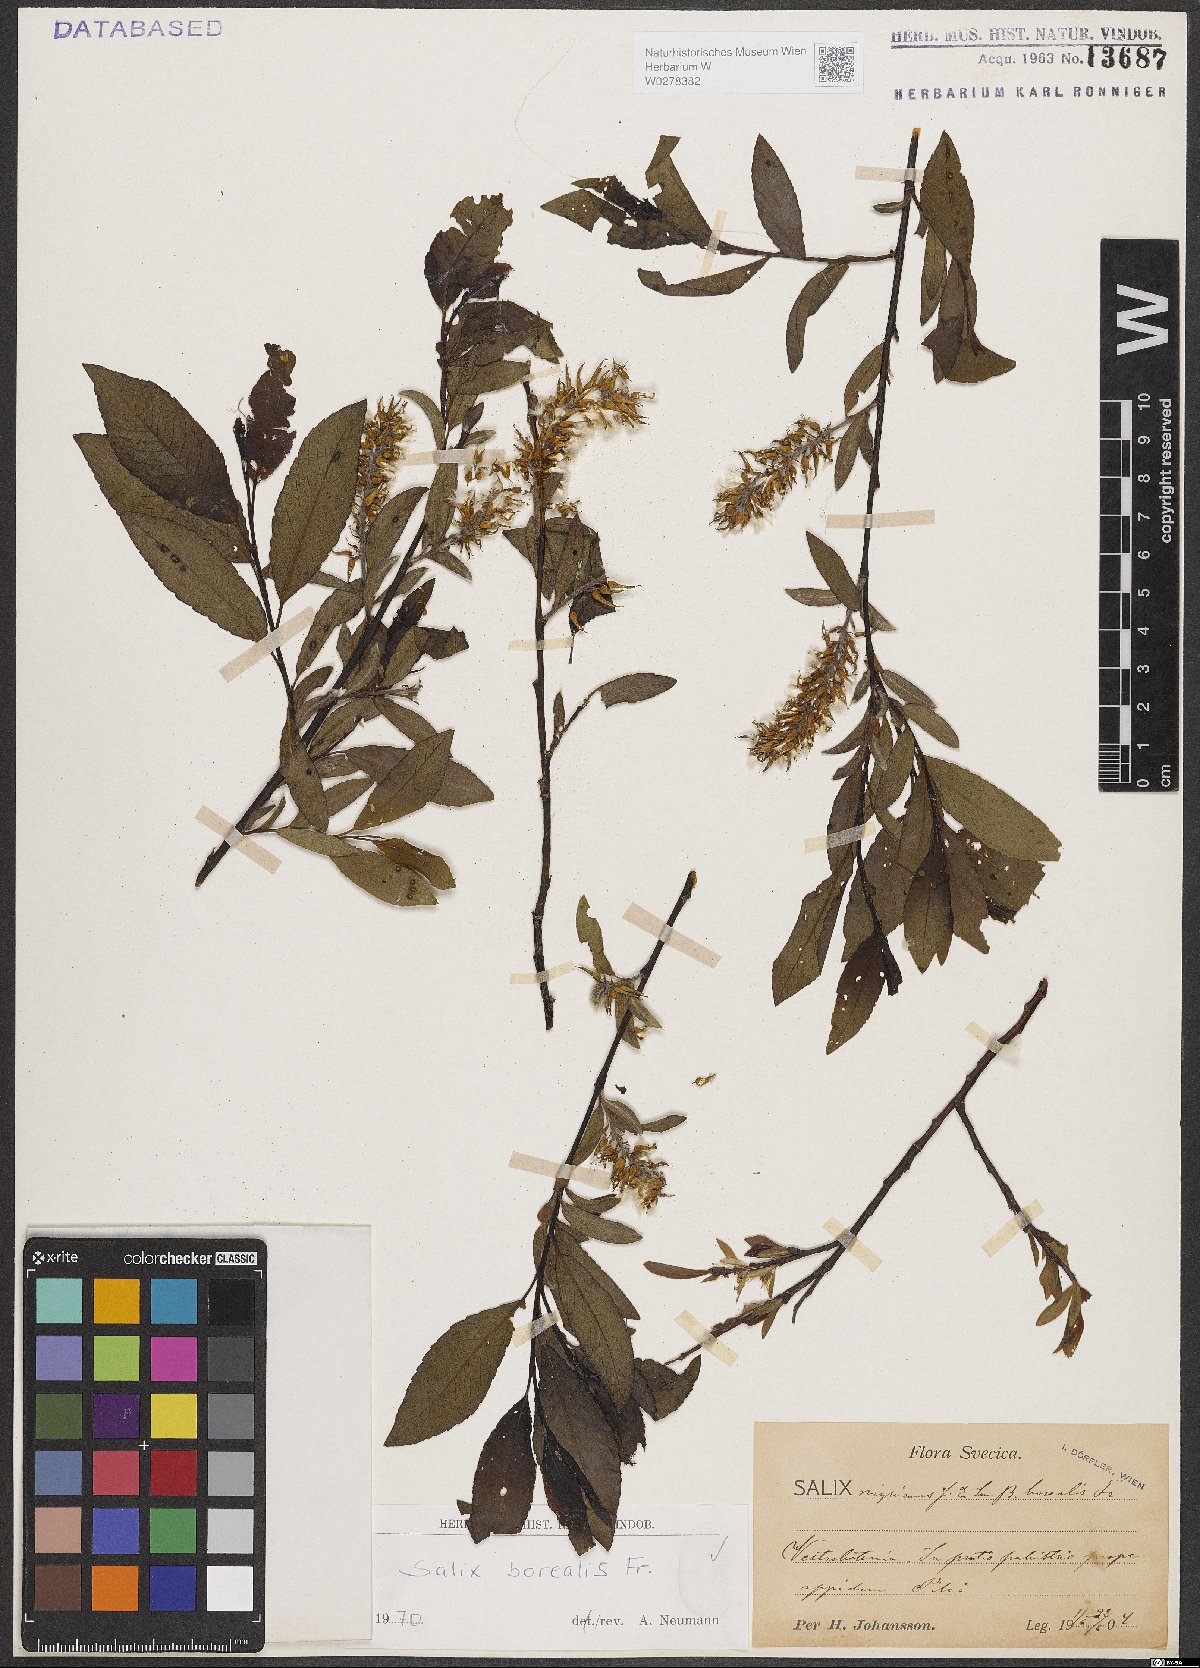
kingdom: Plantae
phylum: Tracheophyta
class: Magnoliopsida
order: Malpighiales
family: Salicaceae
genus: Salix
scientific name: Salix myrsinifolia
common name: Dark-leaved willow
